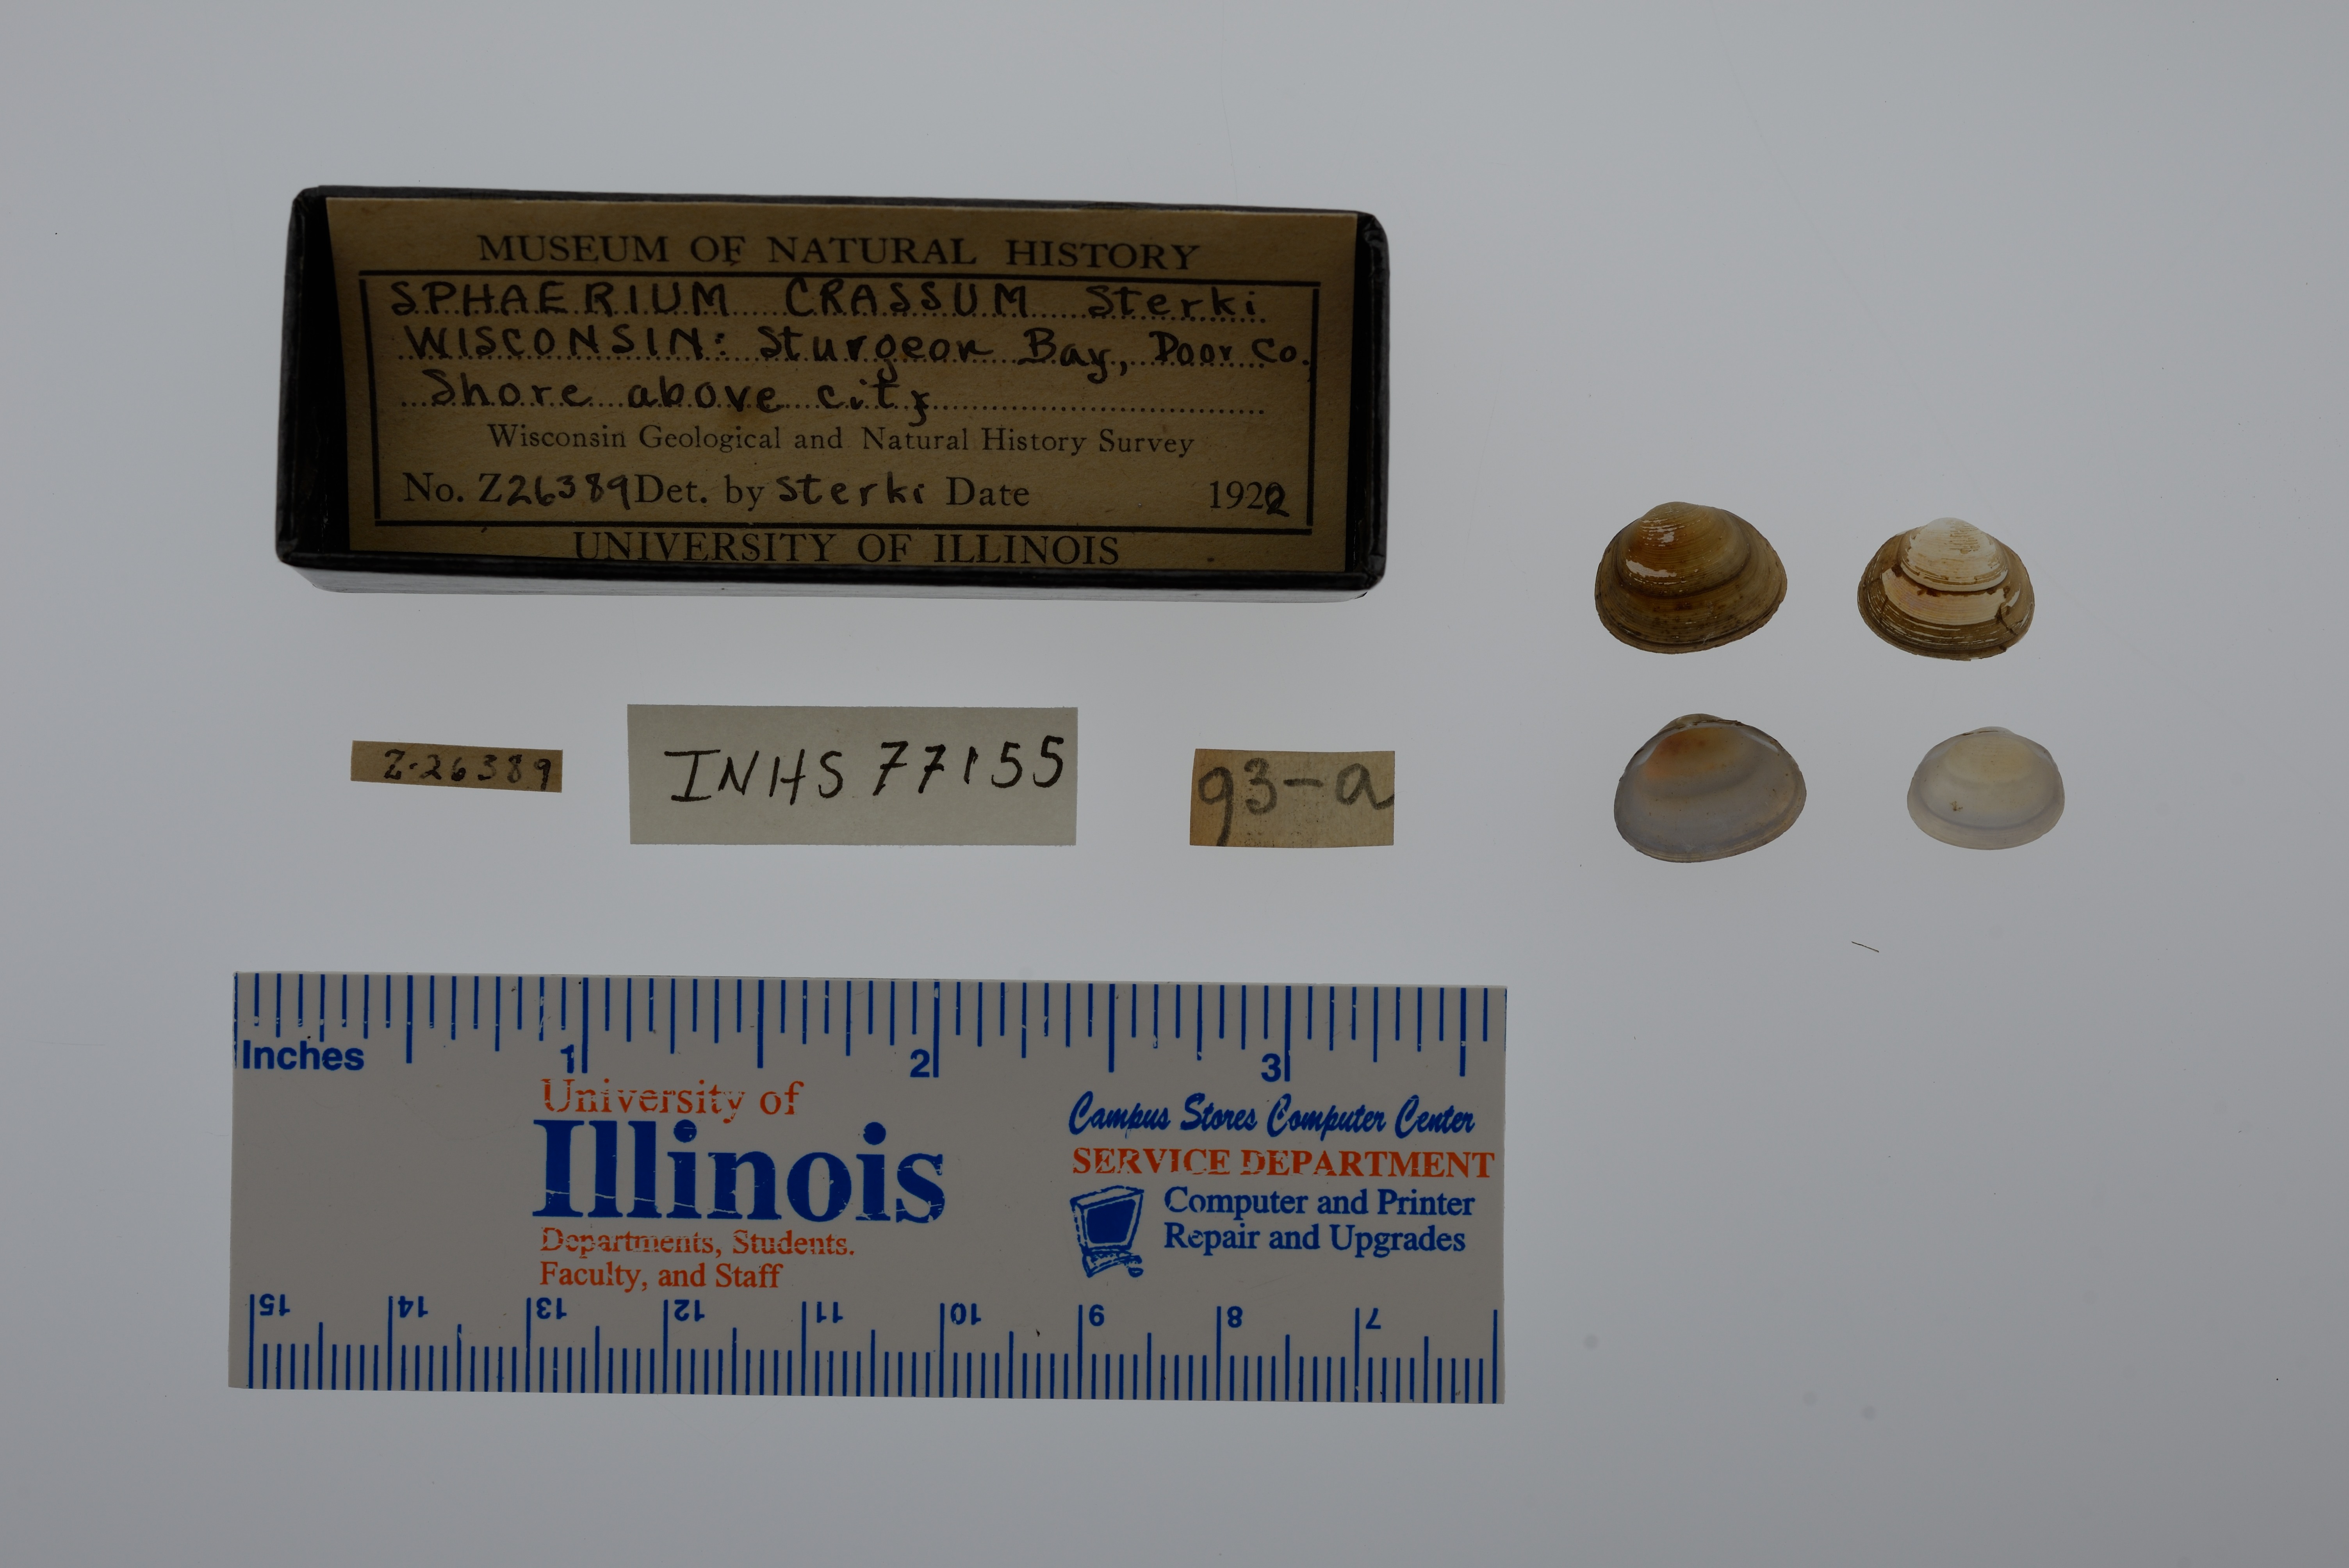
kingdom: Animalia
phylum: Mollusca
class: Bivalvia
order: Sphaeriida
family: Sphaeriidae
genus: Sphaerium
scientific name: Sphaerium simile
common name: Grooved fingernailclam
